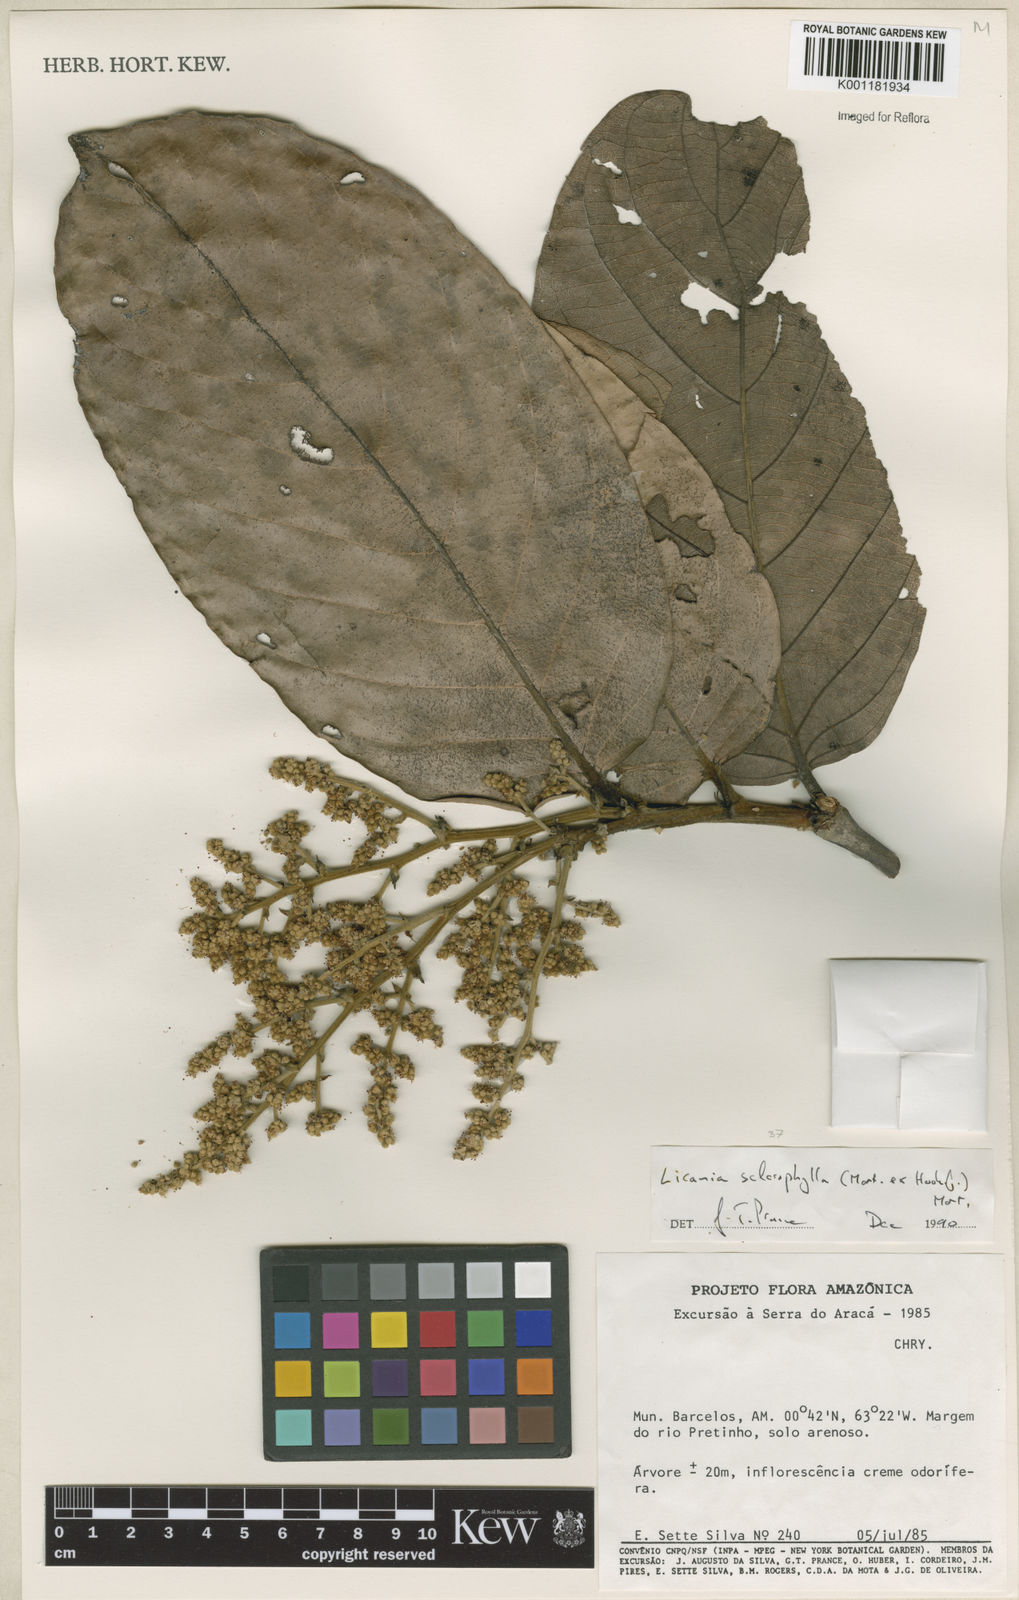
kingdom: Plantae
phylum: Tracheophyta
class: Magnoliopsida
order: Malpighiales
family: Chrysobalanaceae
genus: Leptobalanus
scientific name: Leptobalanus sclerophyllus
